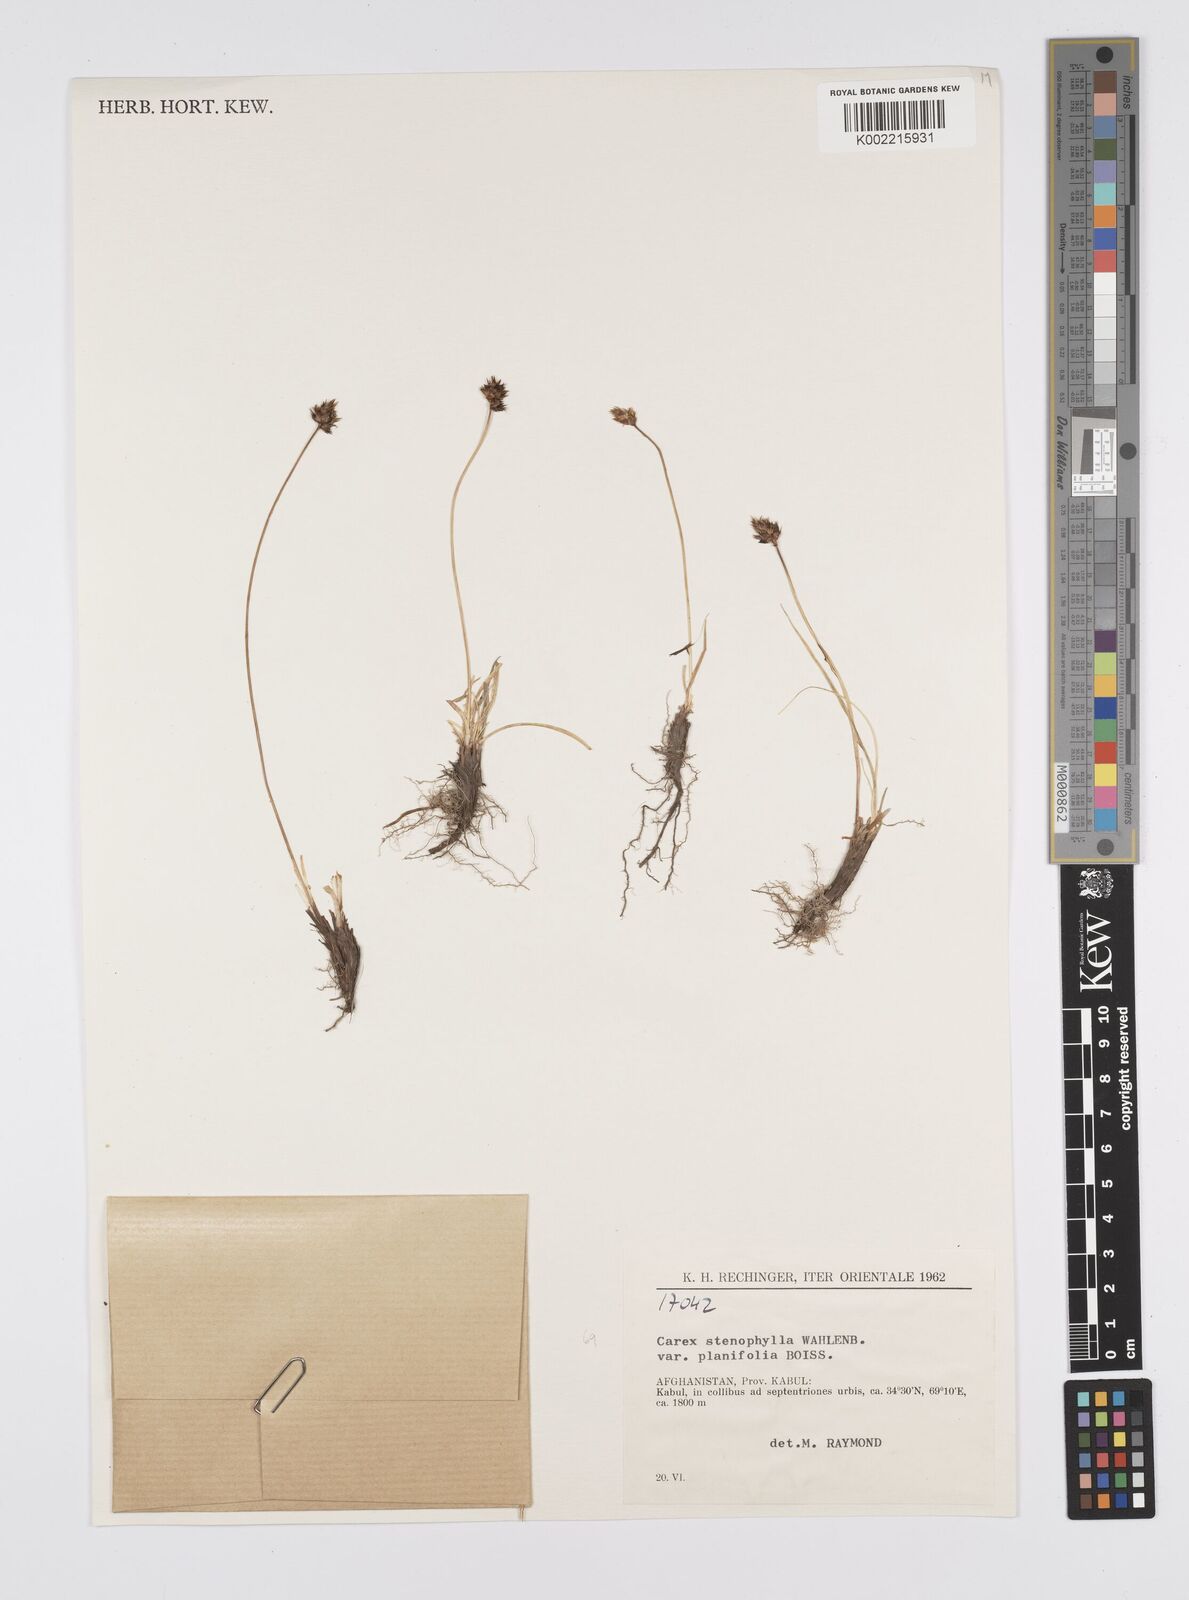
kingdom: Plantae
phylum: Tracheophyta
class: Liliopsida
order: Poales
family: Cyperaceae
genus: Carex
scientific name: Carex stenophylla
